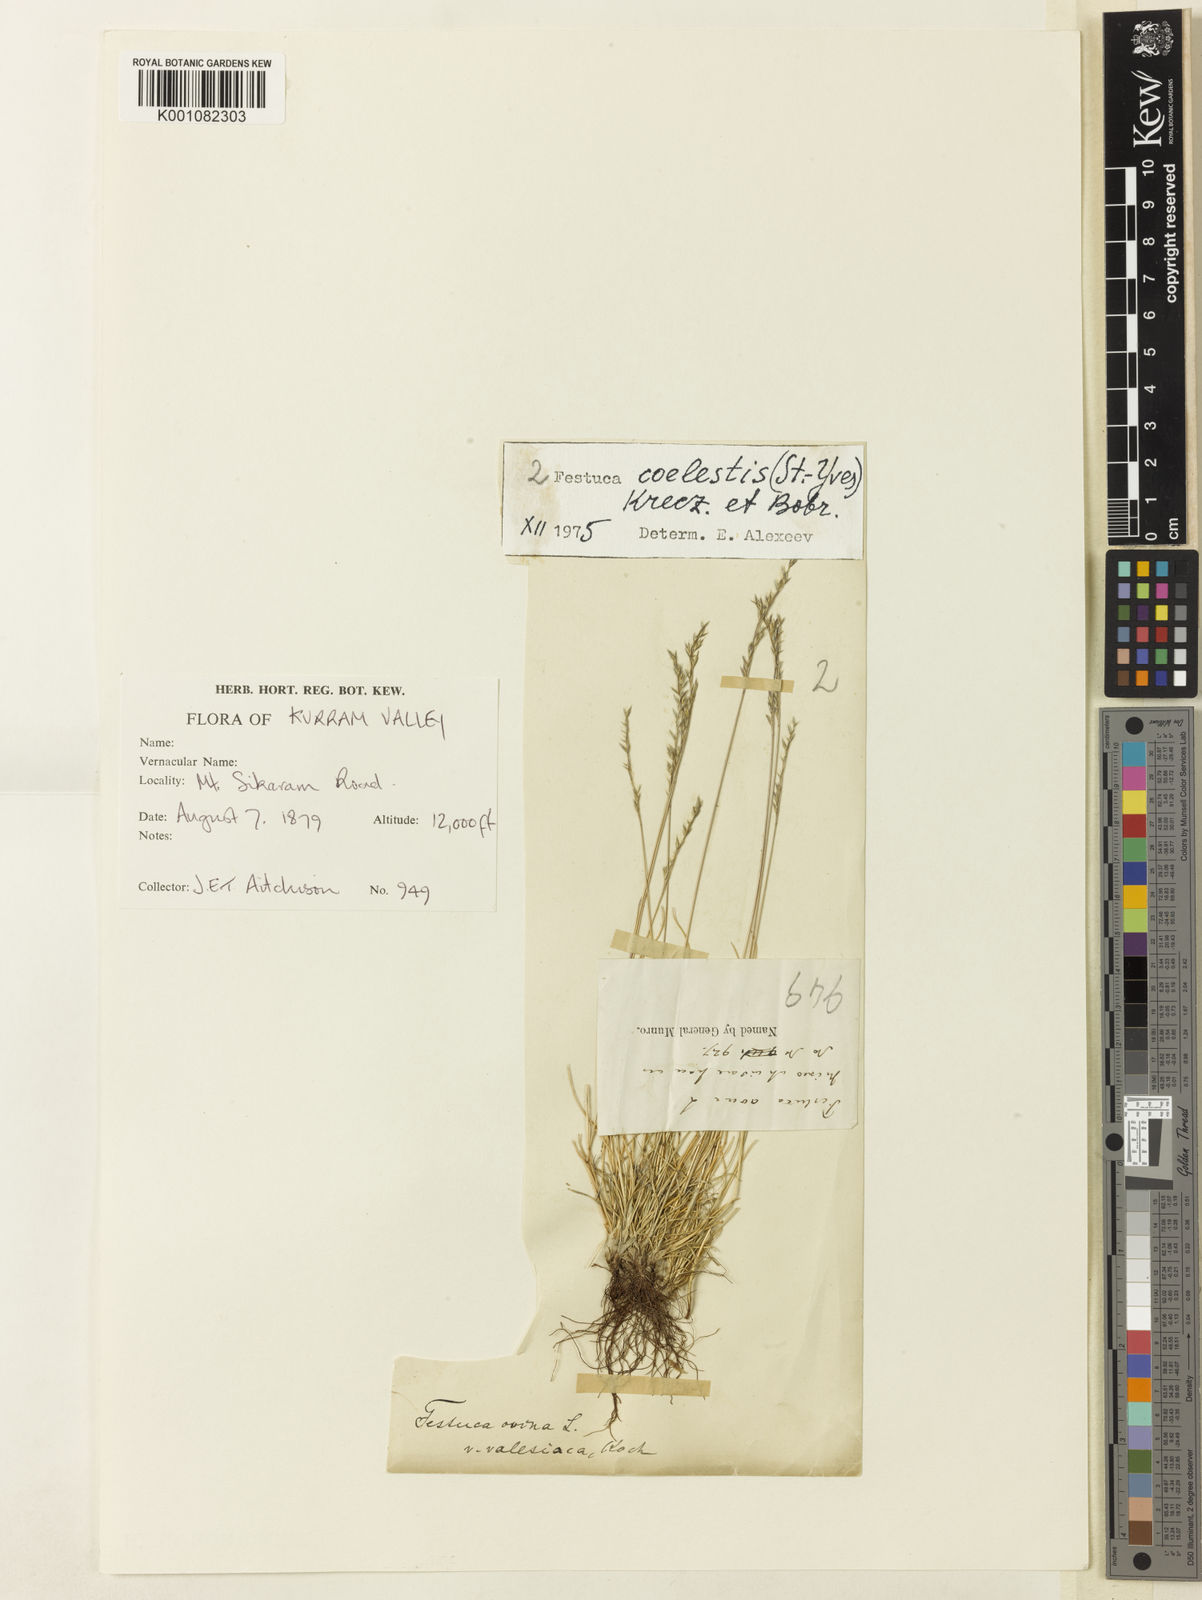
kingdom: Plantae
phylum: Tracheophyta
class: Liliopsida
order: Poales
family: Poaceae
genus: Festuca
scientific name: Festuca coelestis
